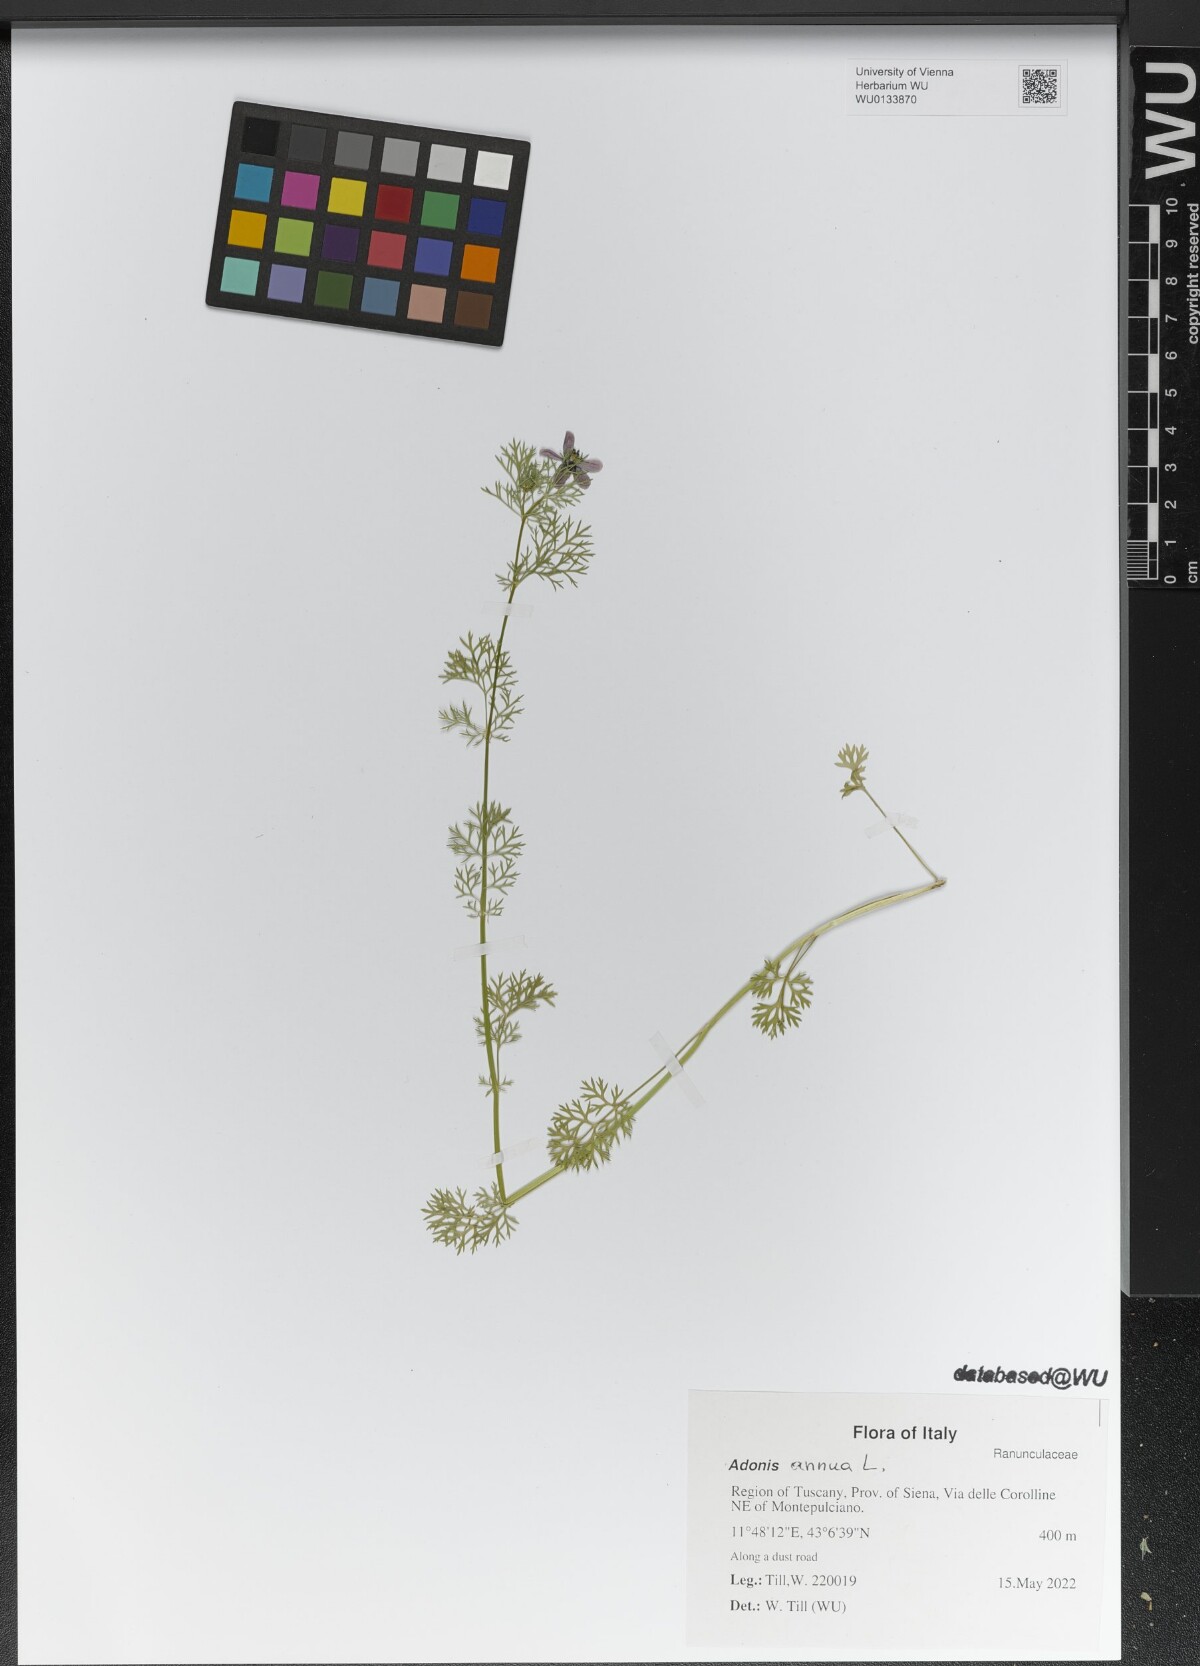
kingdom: Plantae
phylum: Tracheophyta
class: Magnoliopsida
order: Ranunculales
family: Ranunculaceae
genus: Adonis
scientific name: Adonis annua
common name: Pheasant's-eye
